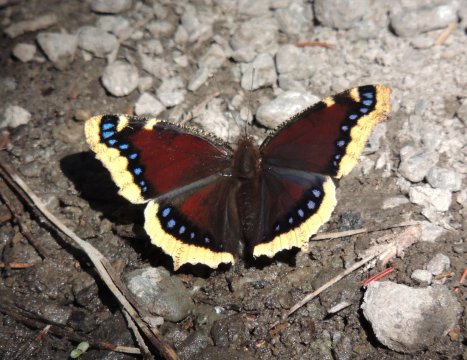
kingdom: Animalia
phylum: Arthropoda
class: Insecta
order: Lepidoptera
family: Nymphalidae
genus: Nymphalis
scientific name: Nymphalis antiopa
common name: Mourning Cloak
